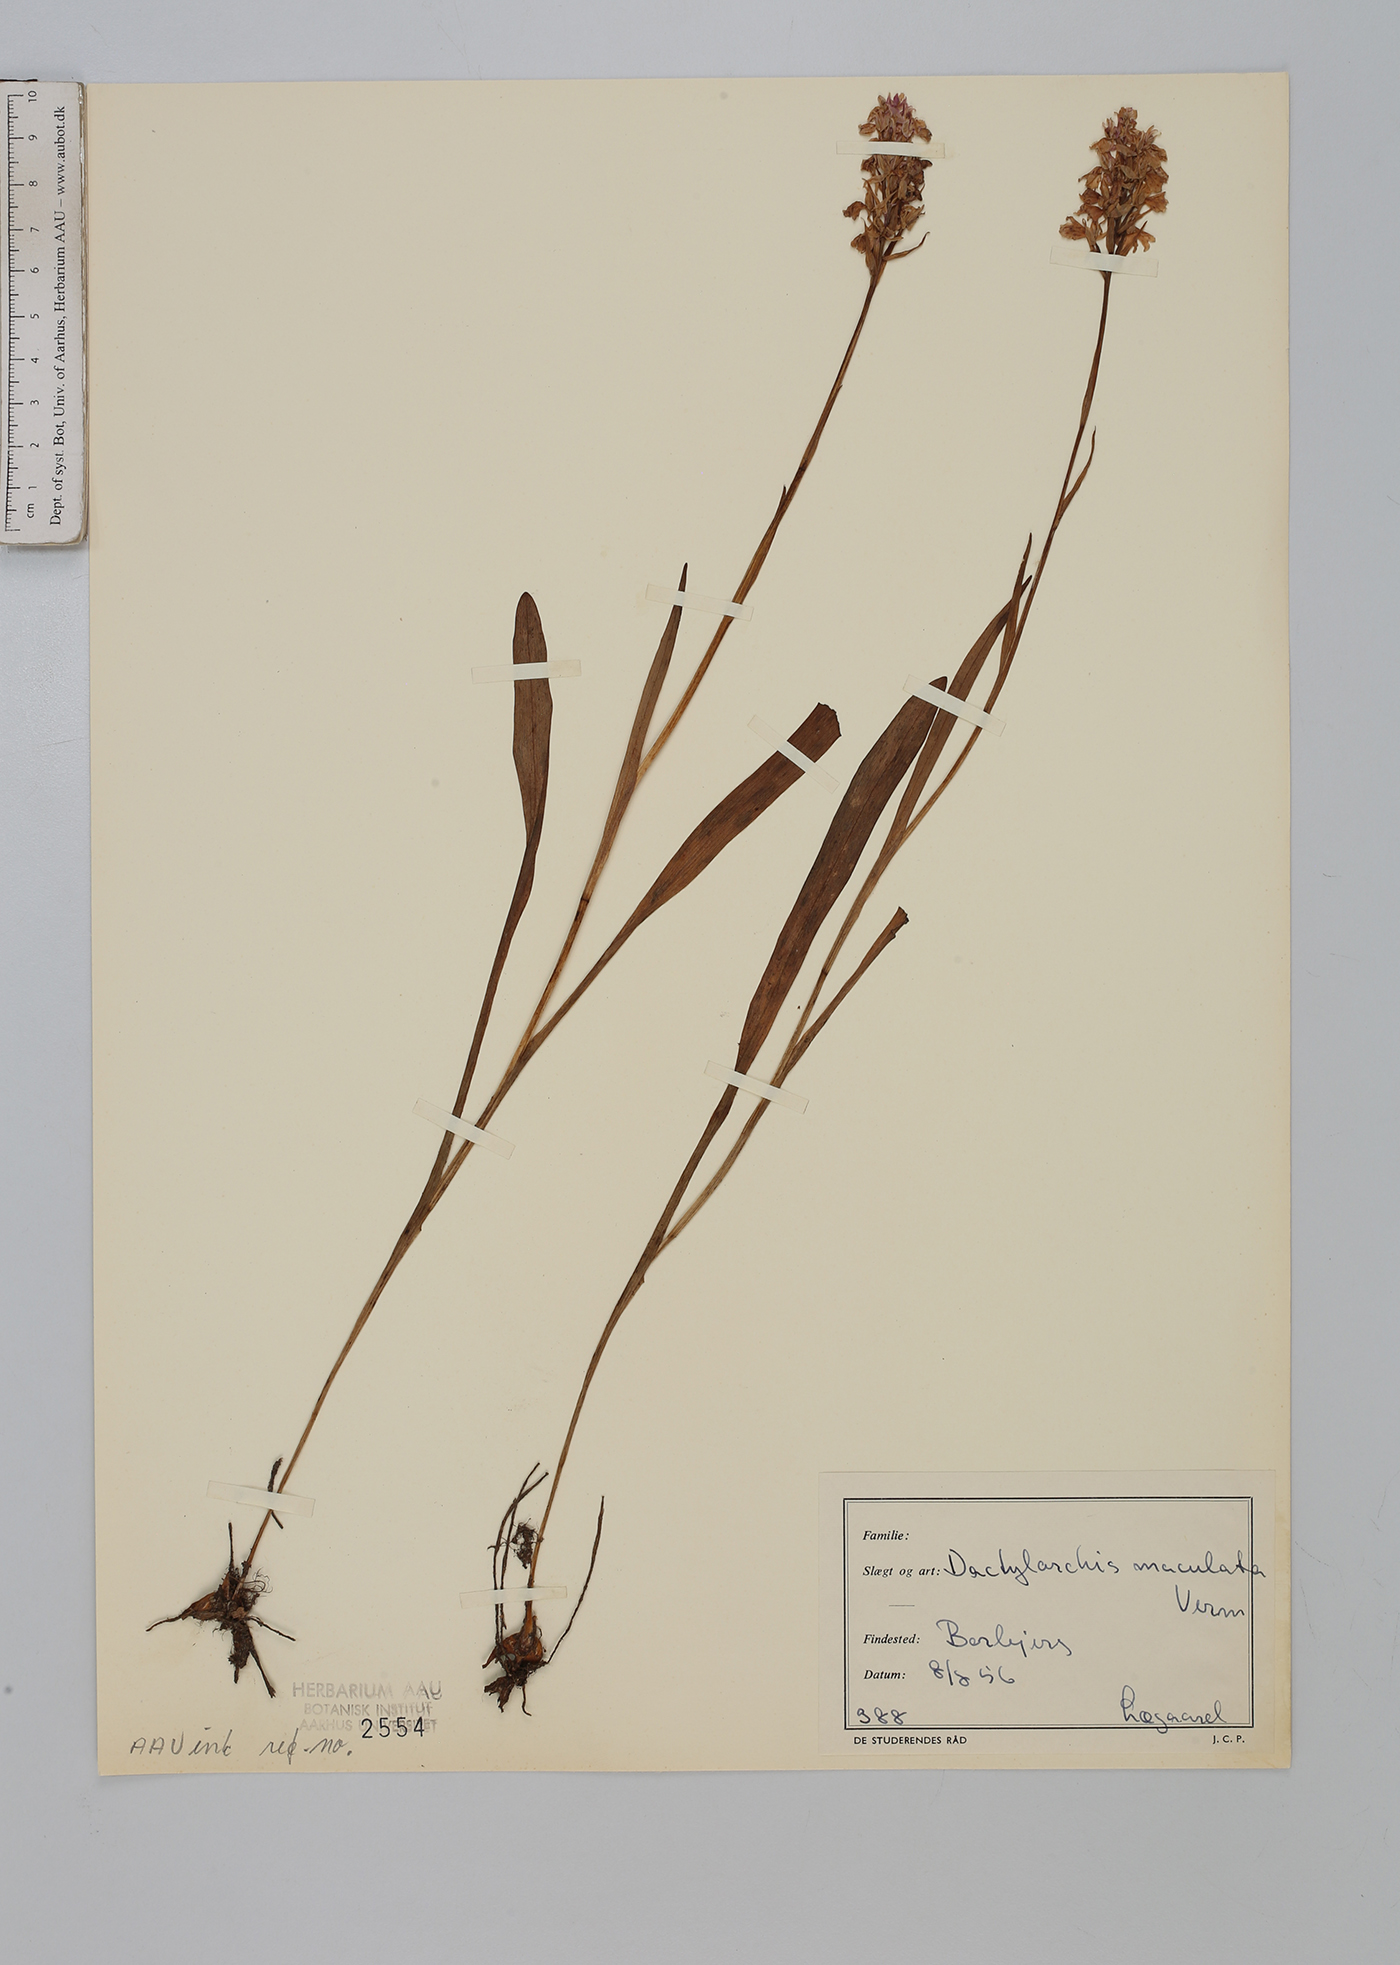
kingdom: Plantae
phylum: Tracheophyta
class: Liliopsida
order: Asparagales
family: Orchidaceae
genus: Dactylorhiza
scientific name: Dactylorhiza maculata
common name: Heath spotted-orchid
